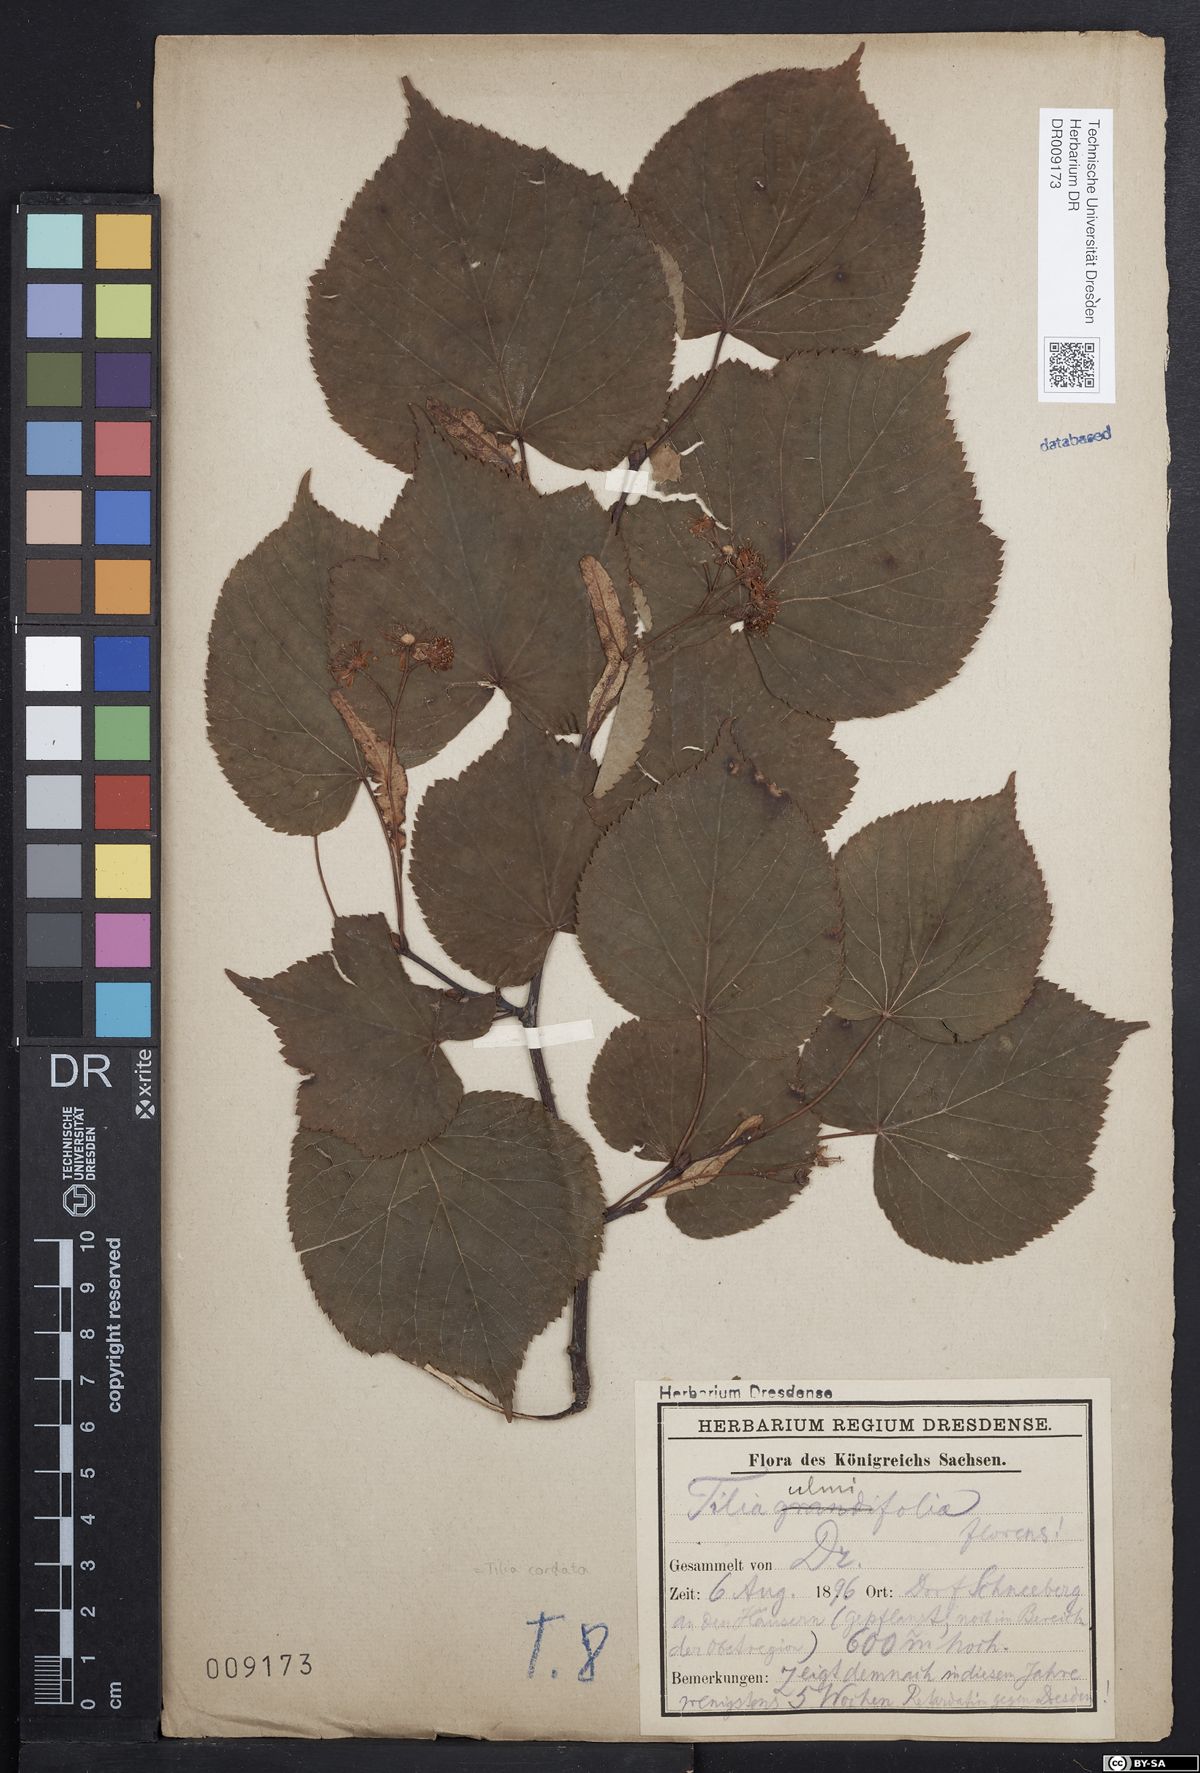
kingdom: Plantae
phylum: Tracheophyta
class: Magnoliopsida
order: Malvales
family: Malvaceae
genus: Tilia
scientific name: Tilia cordata
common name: Small-leaved lime
